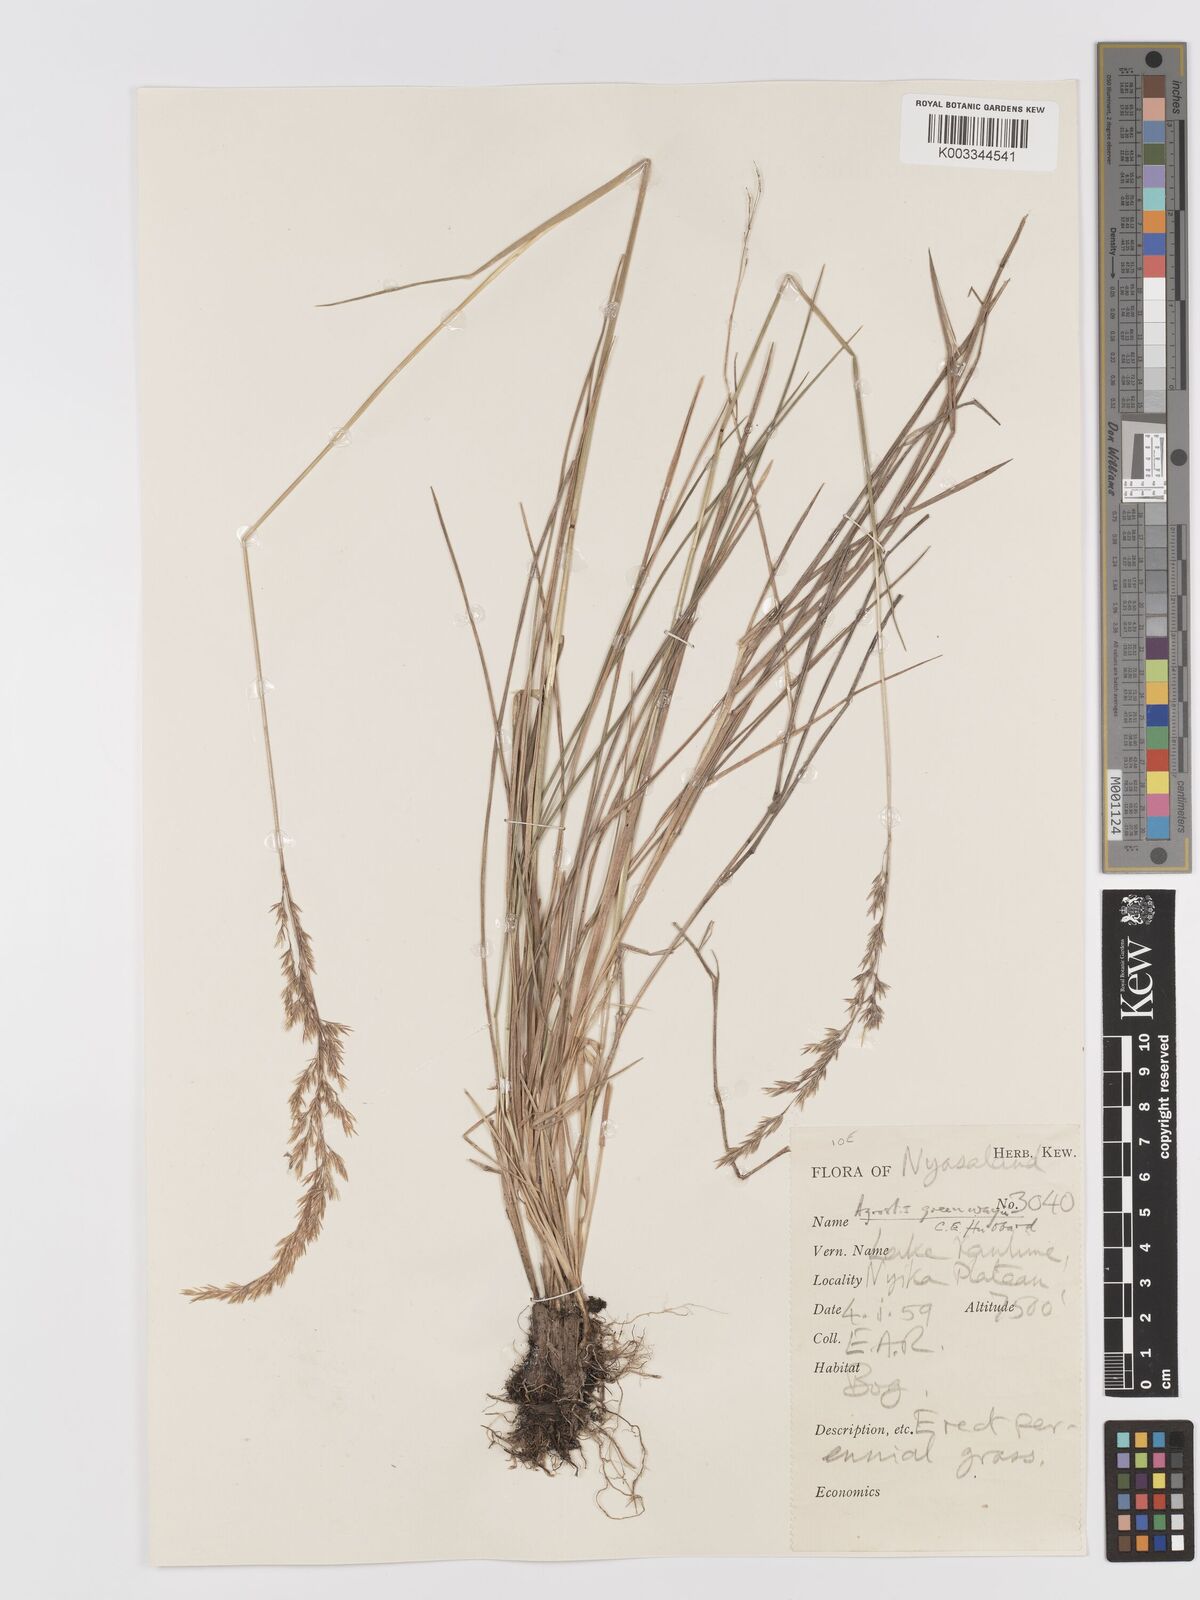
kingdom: Plantae
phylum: Tracheophyta
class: Liliopsida
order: Poales
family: Poaceae
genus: Agrostis
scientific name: Agrostis producta
